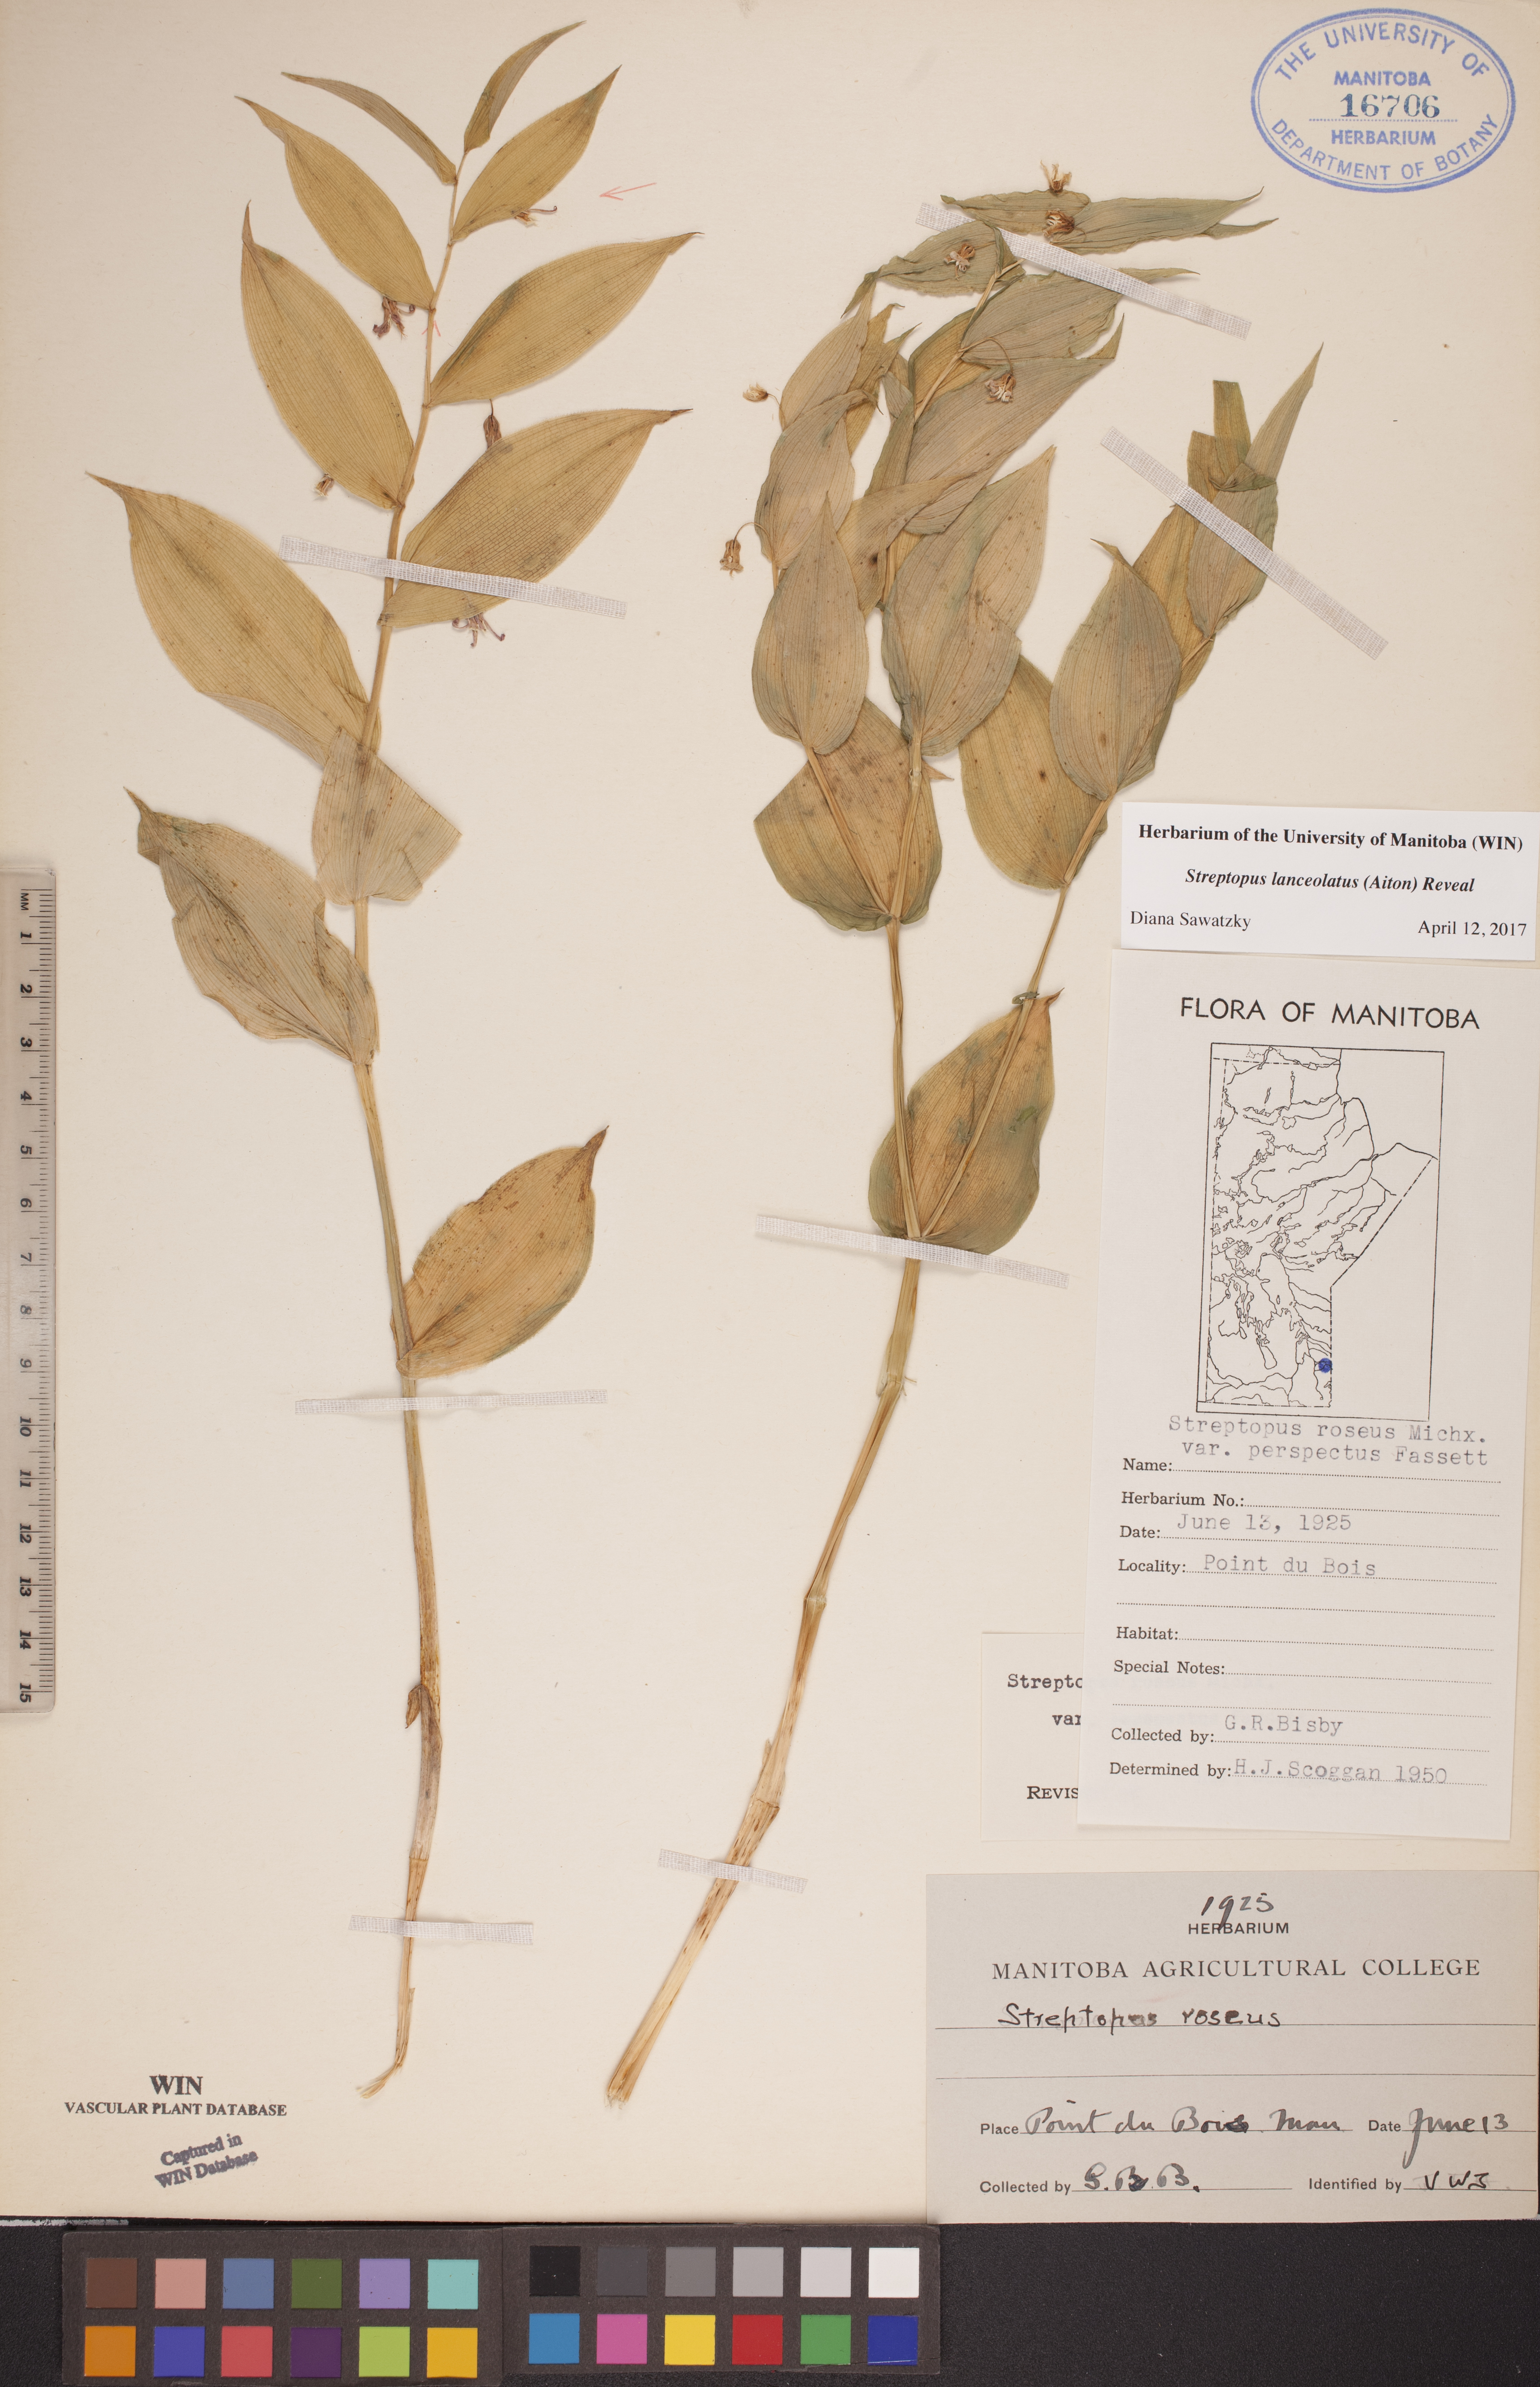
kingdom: Plantae
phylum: Tracheophyta
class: Liliopsida
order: Liliales
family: Liliaceae
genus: Streptopus
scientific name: Streptopus lanceolatus
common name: Rose mandarin
